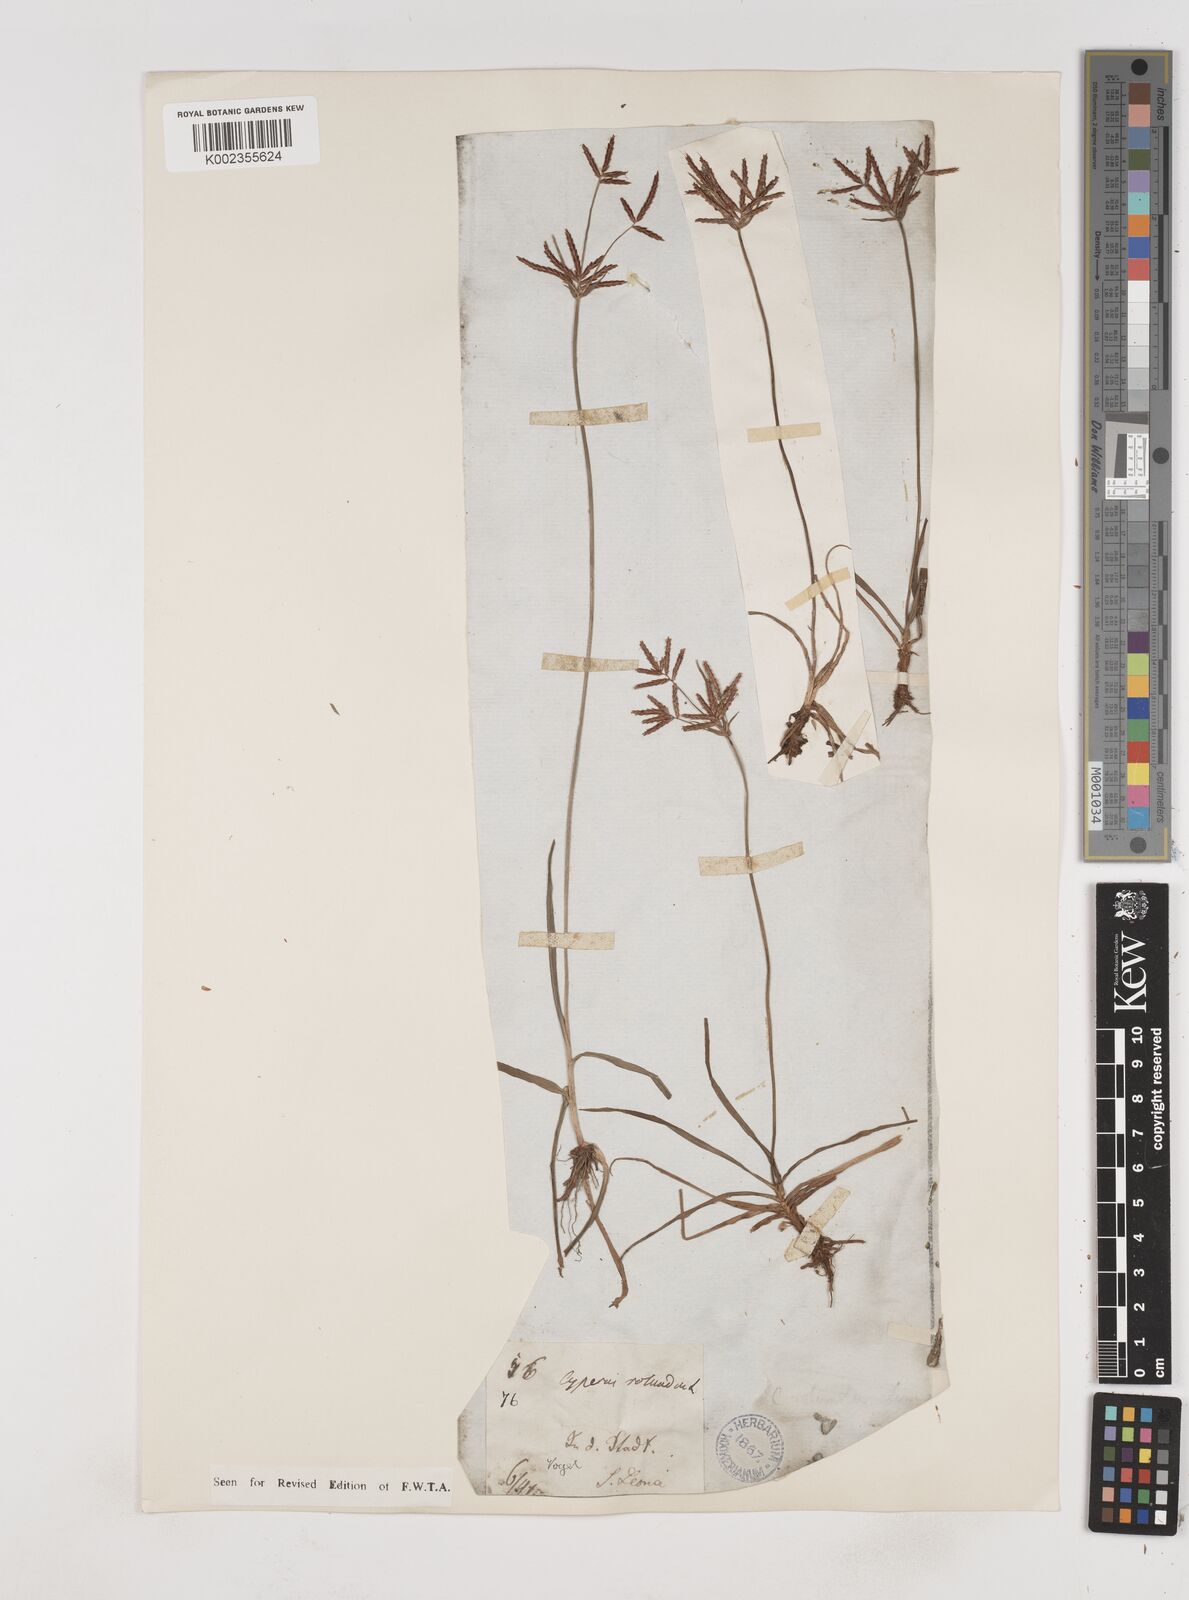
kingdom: Plantae
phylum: Tracheophyta
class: Liliopsida
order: Poales
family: Cyperaceae
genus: Cyperus
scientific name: Cyperus rotundus
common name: Nutgrass
